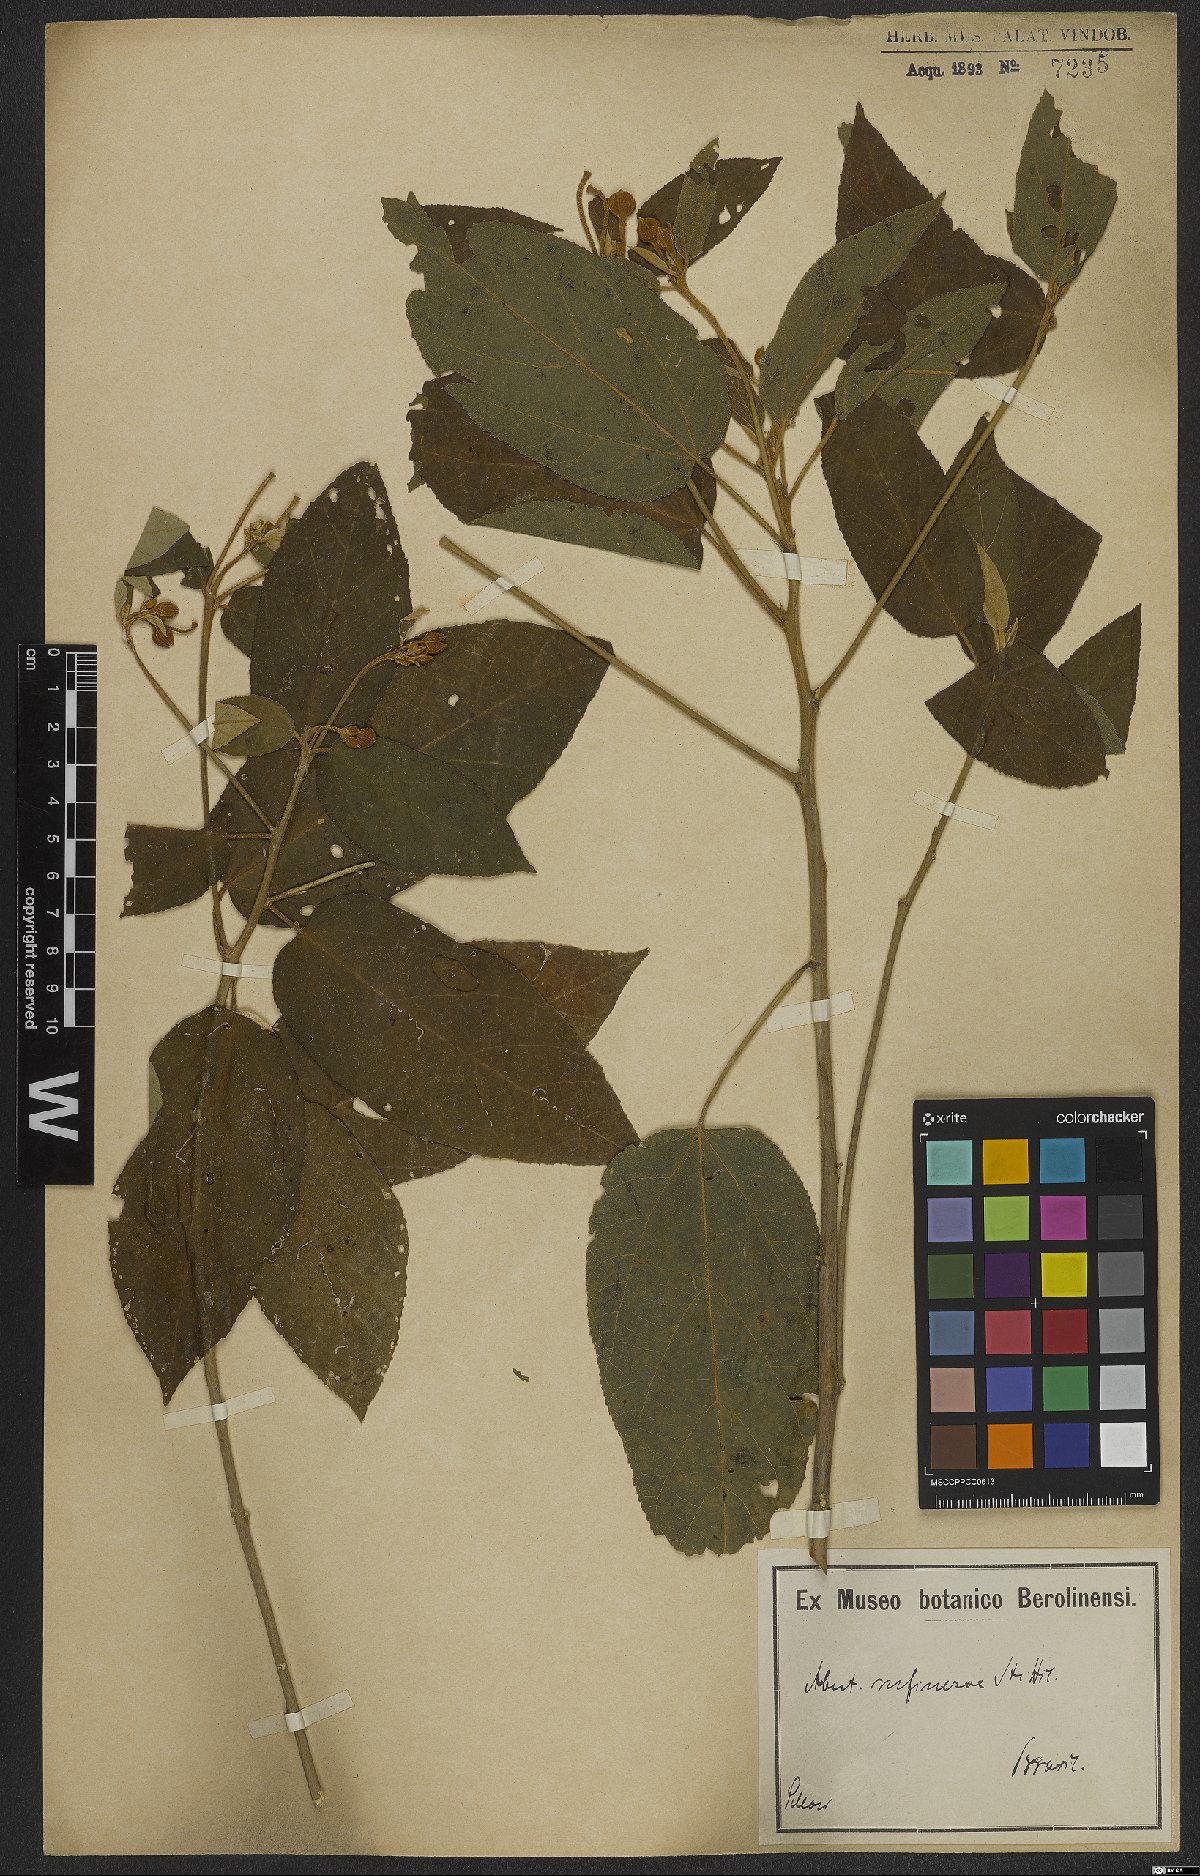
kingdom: Plantae
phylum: Tracheophyta
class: Magnoliopsida
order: Malvales
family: Malvaceae
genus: Callianthe
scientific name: Callianthe rufinerva
